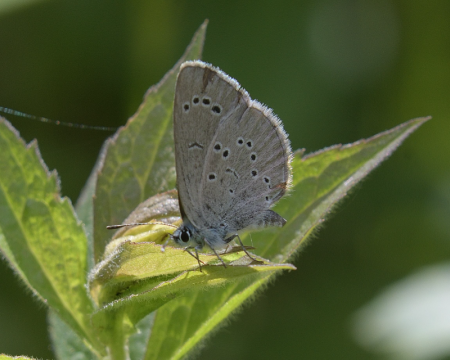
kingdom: Animalia
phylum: Arthropoda
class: Insecta
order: Lepidoptera
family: Lycaenidae
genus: Glaucopsyche
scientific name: Glaucopsyche lygdamus
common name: Silvery Blue
